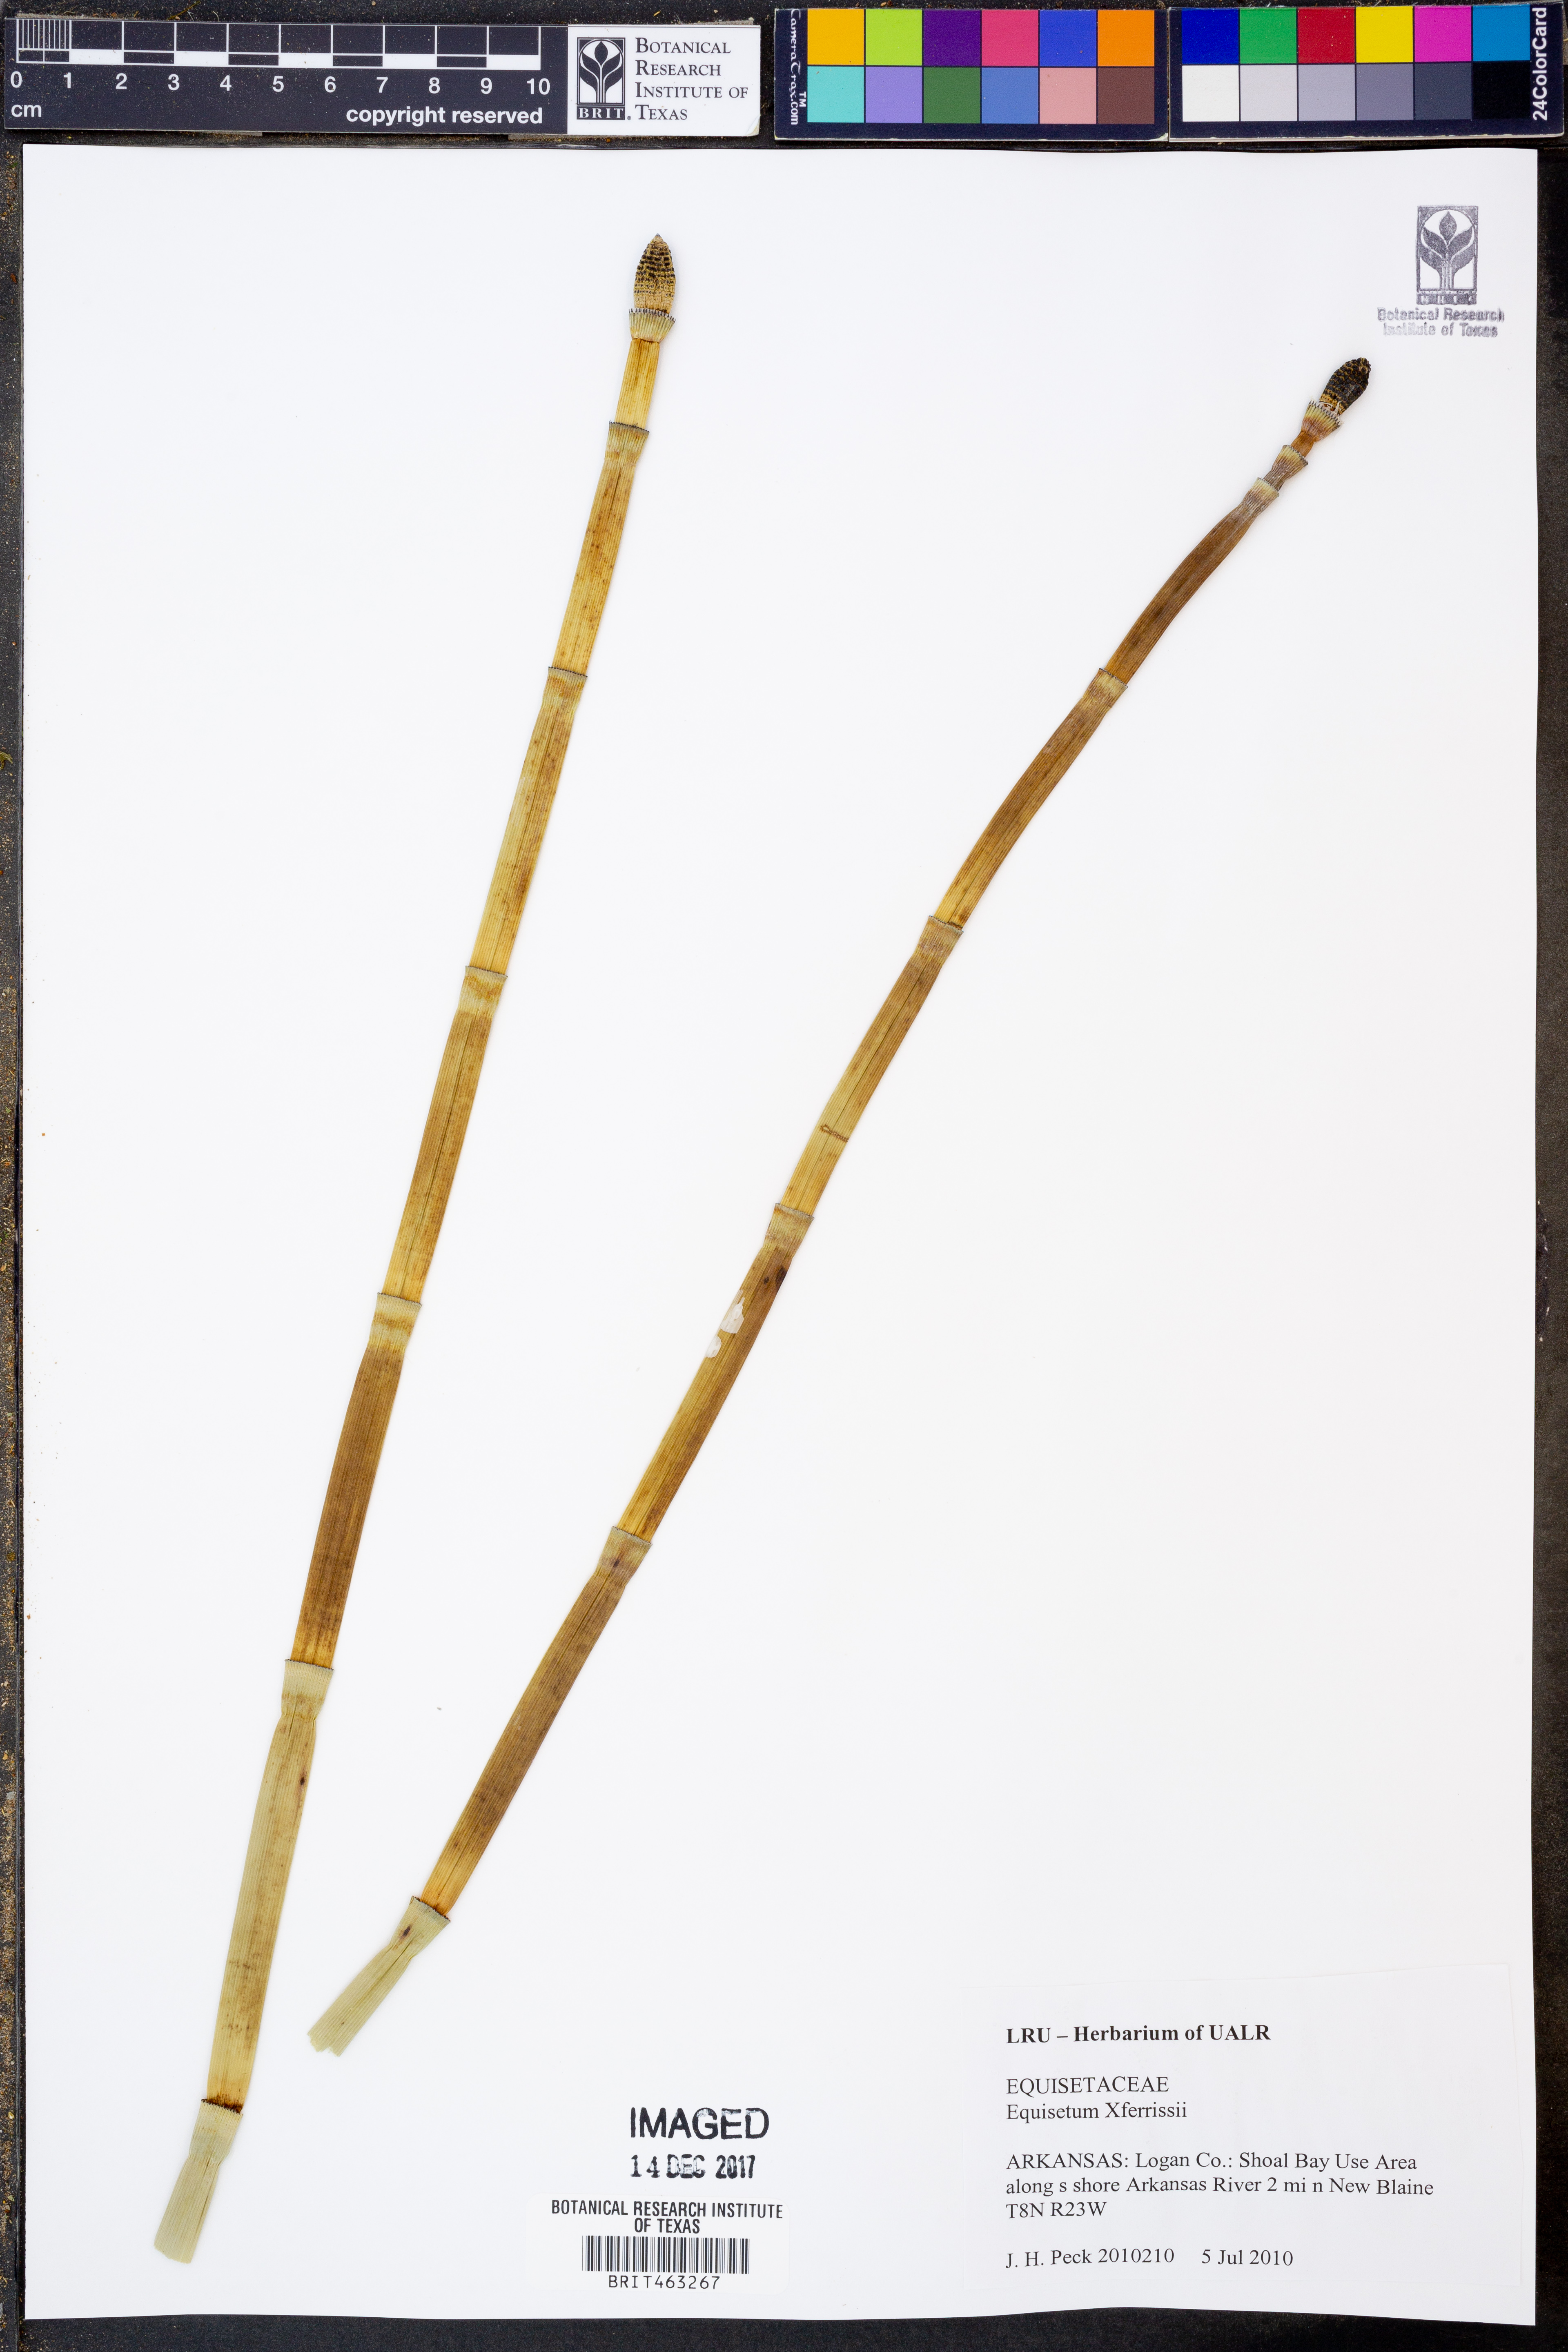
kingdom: Plantae
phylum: Tracheophyta
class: Polypodiopsida
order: Equisetales
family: Equisetaceae
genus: Equisetum
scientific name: Equisetum ferrissii
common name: Ferriss' horsetail
